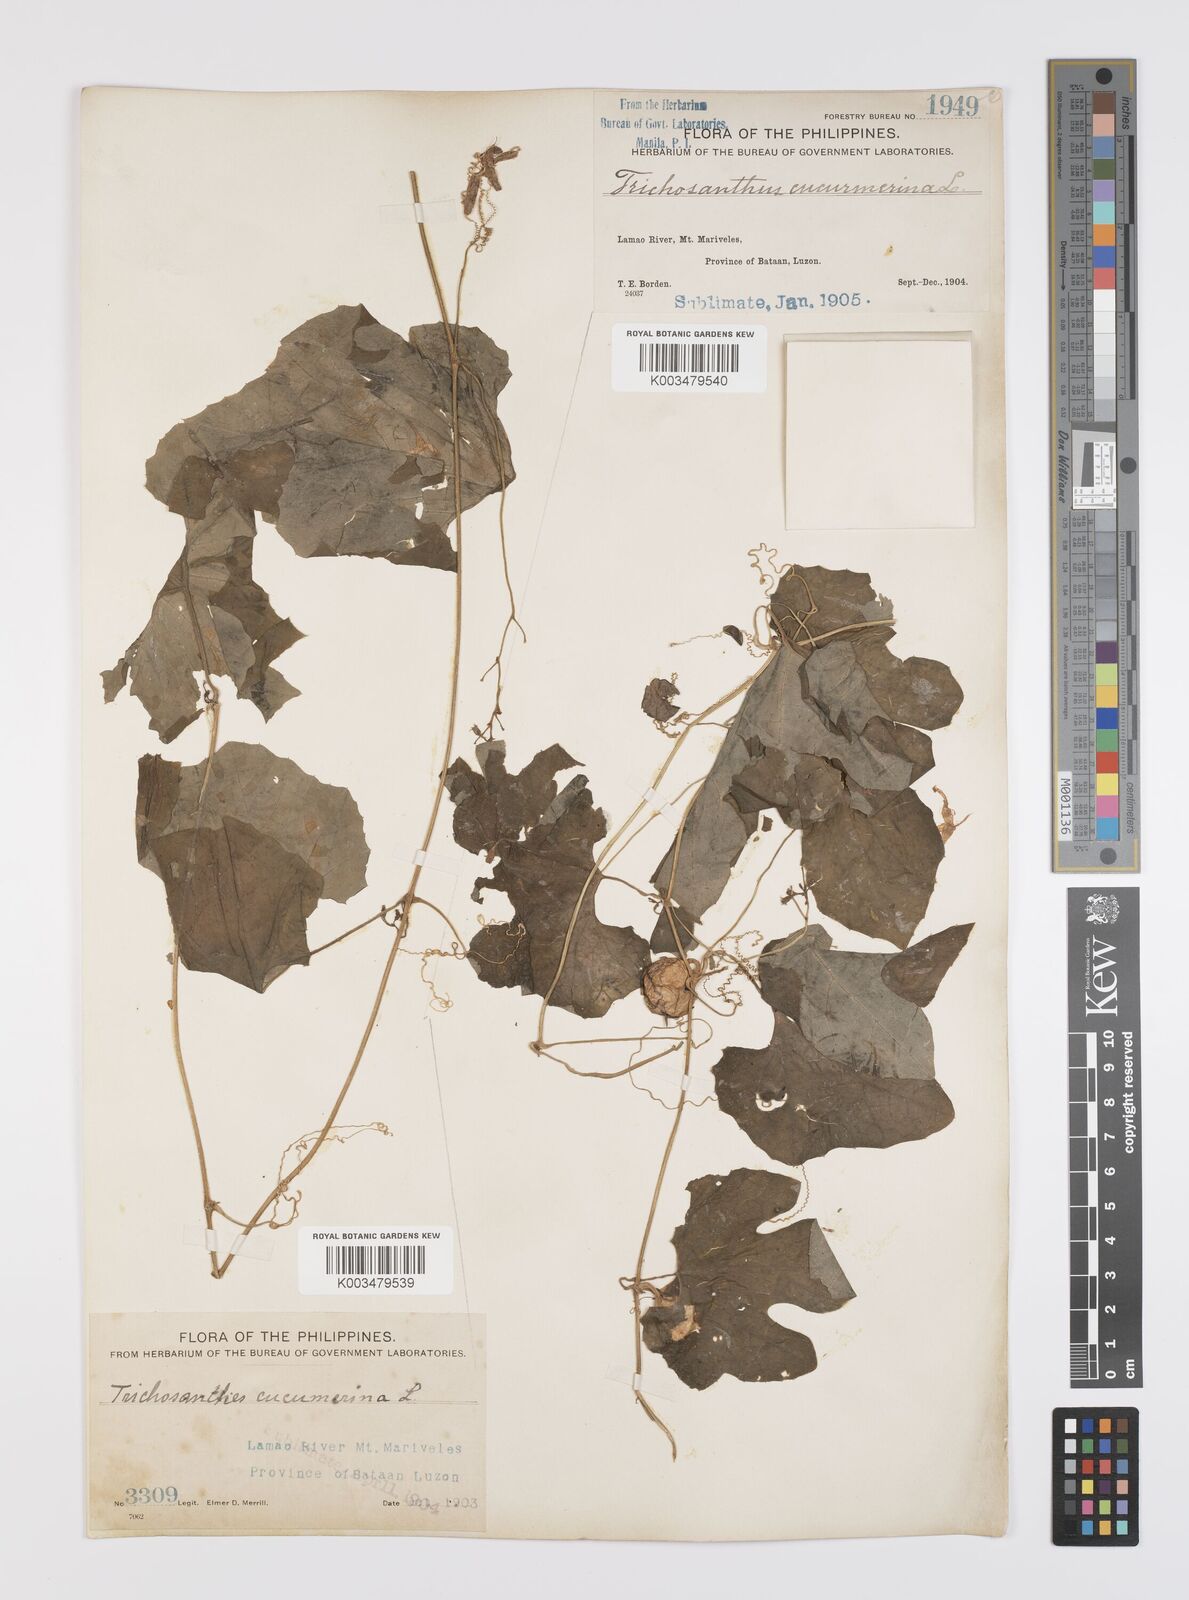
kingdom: Plantae
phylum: Tracheophyta
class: Magnoliopsida
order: Cucurbitales
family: Cucurbitaceae
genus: Trichosanthes
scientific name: Trichosanthes cucumerina
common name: Snakegourd
